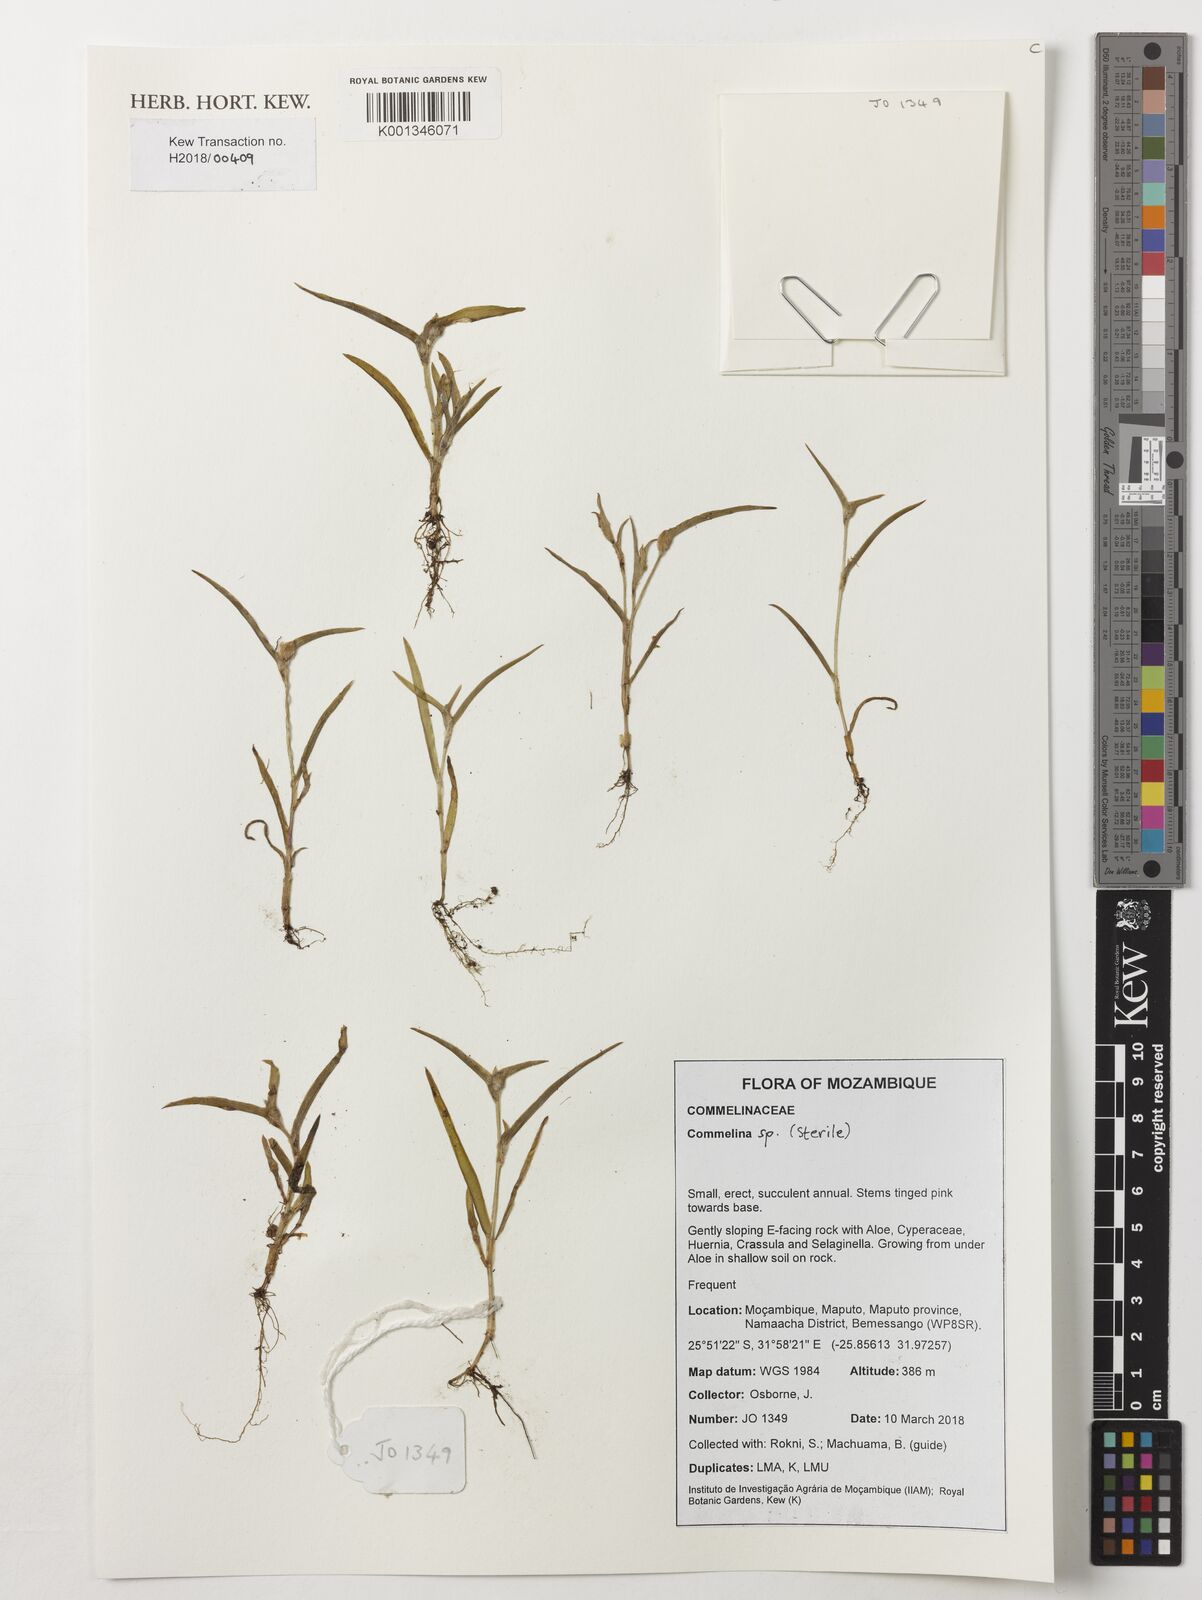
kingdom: Plantae
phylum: Tracheophyta
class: Liliopsida
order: Commelinales
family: Commelinaceae
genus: Commelina
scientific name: Commelina
